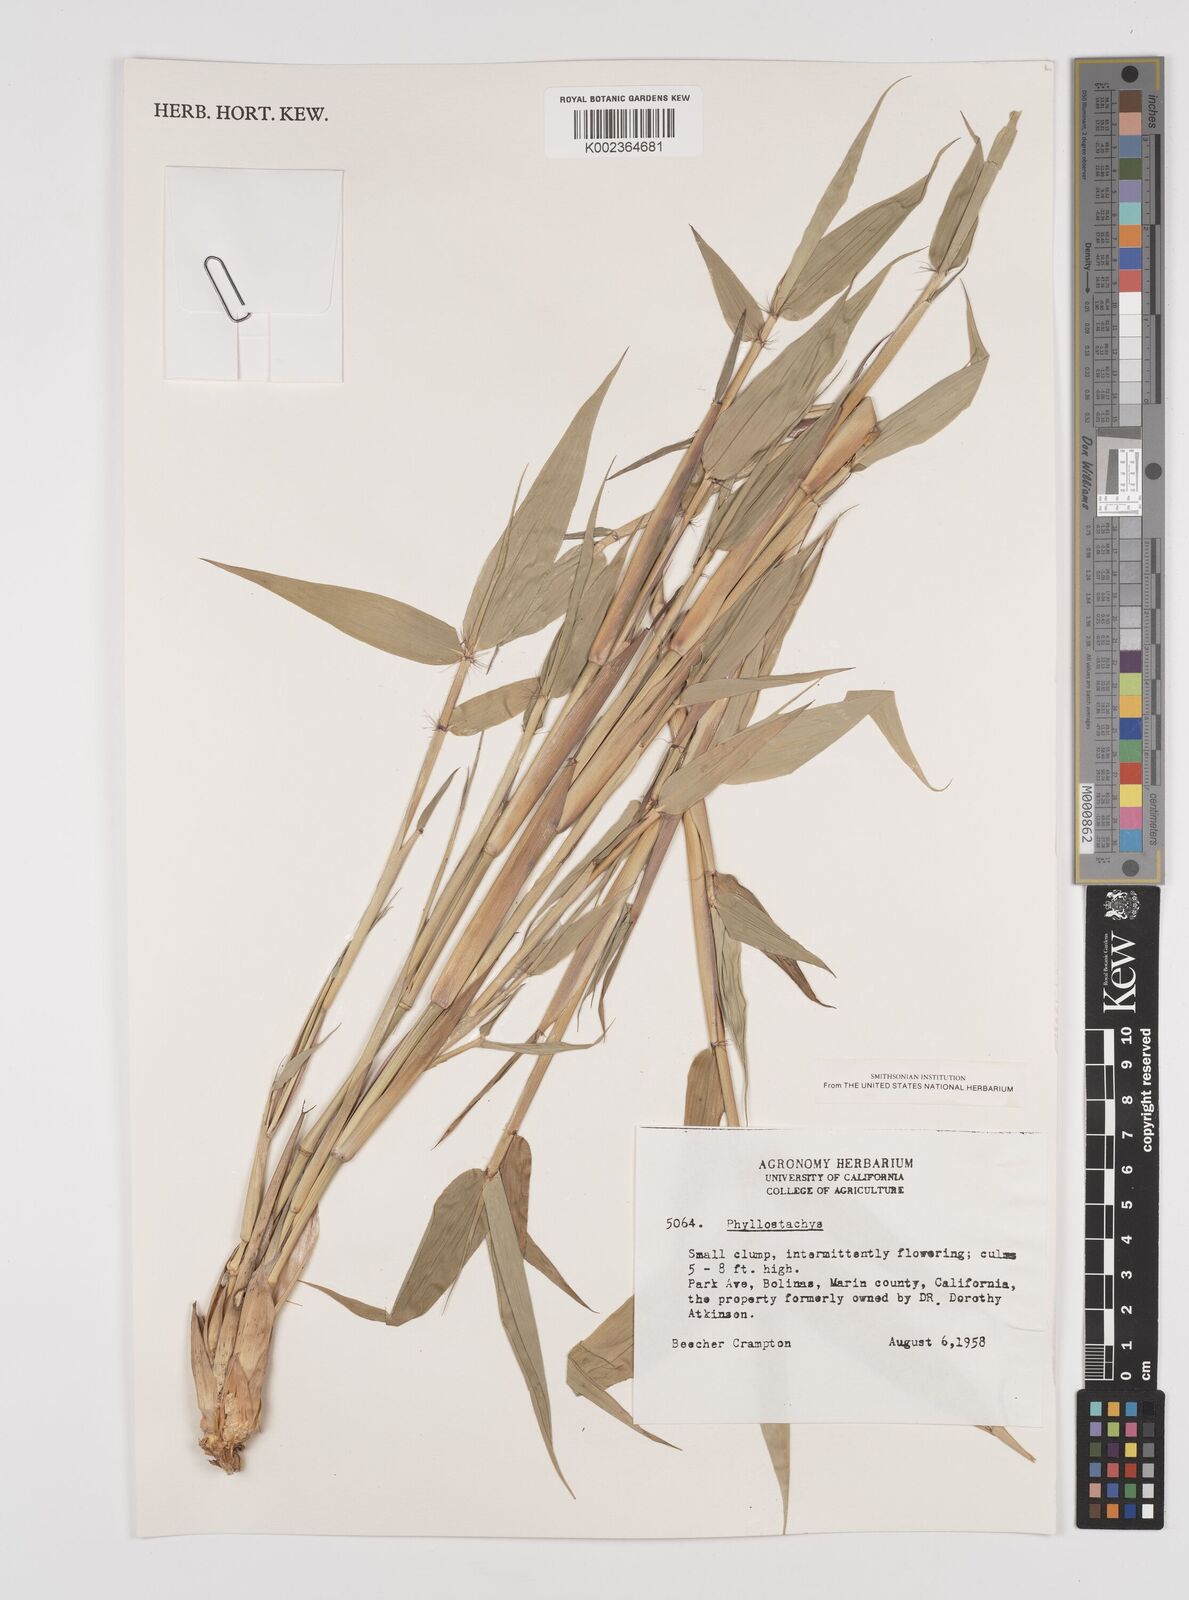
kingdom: Plantae
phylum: Tracheophyta
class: Liliopsida
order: Poales
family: Poaceae
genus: Phyllostachys
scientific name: Phyllostachys
